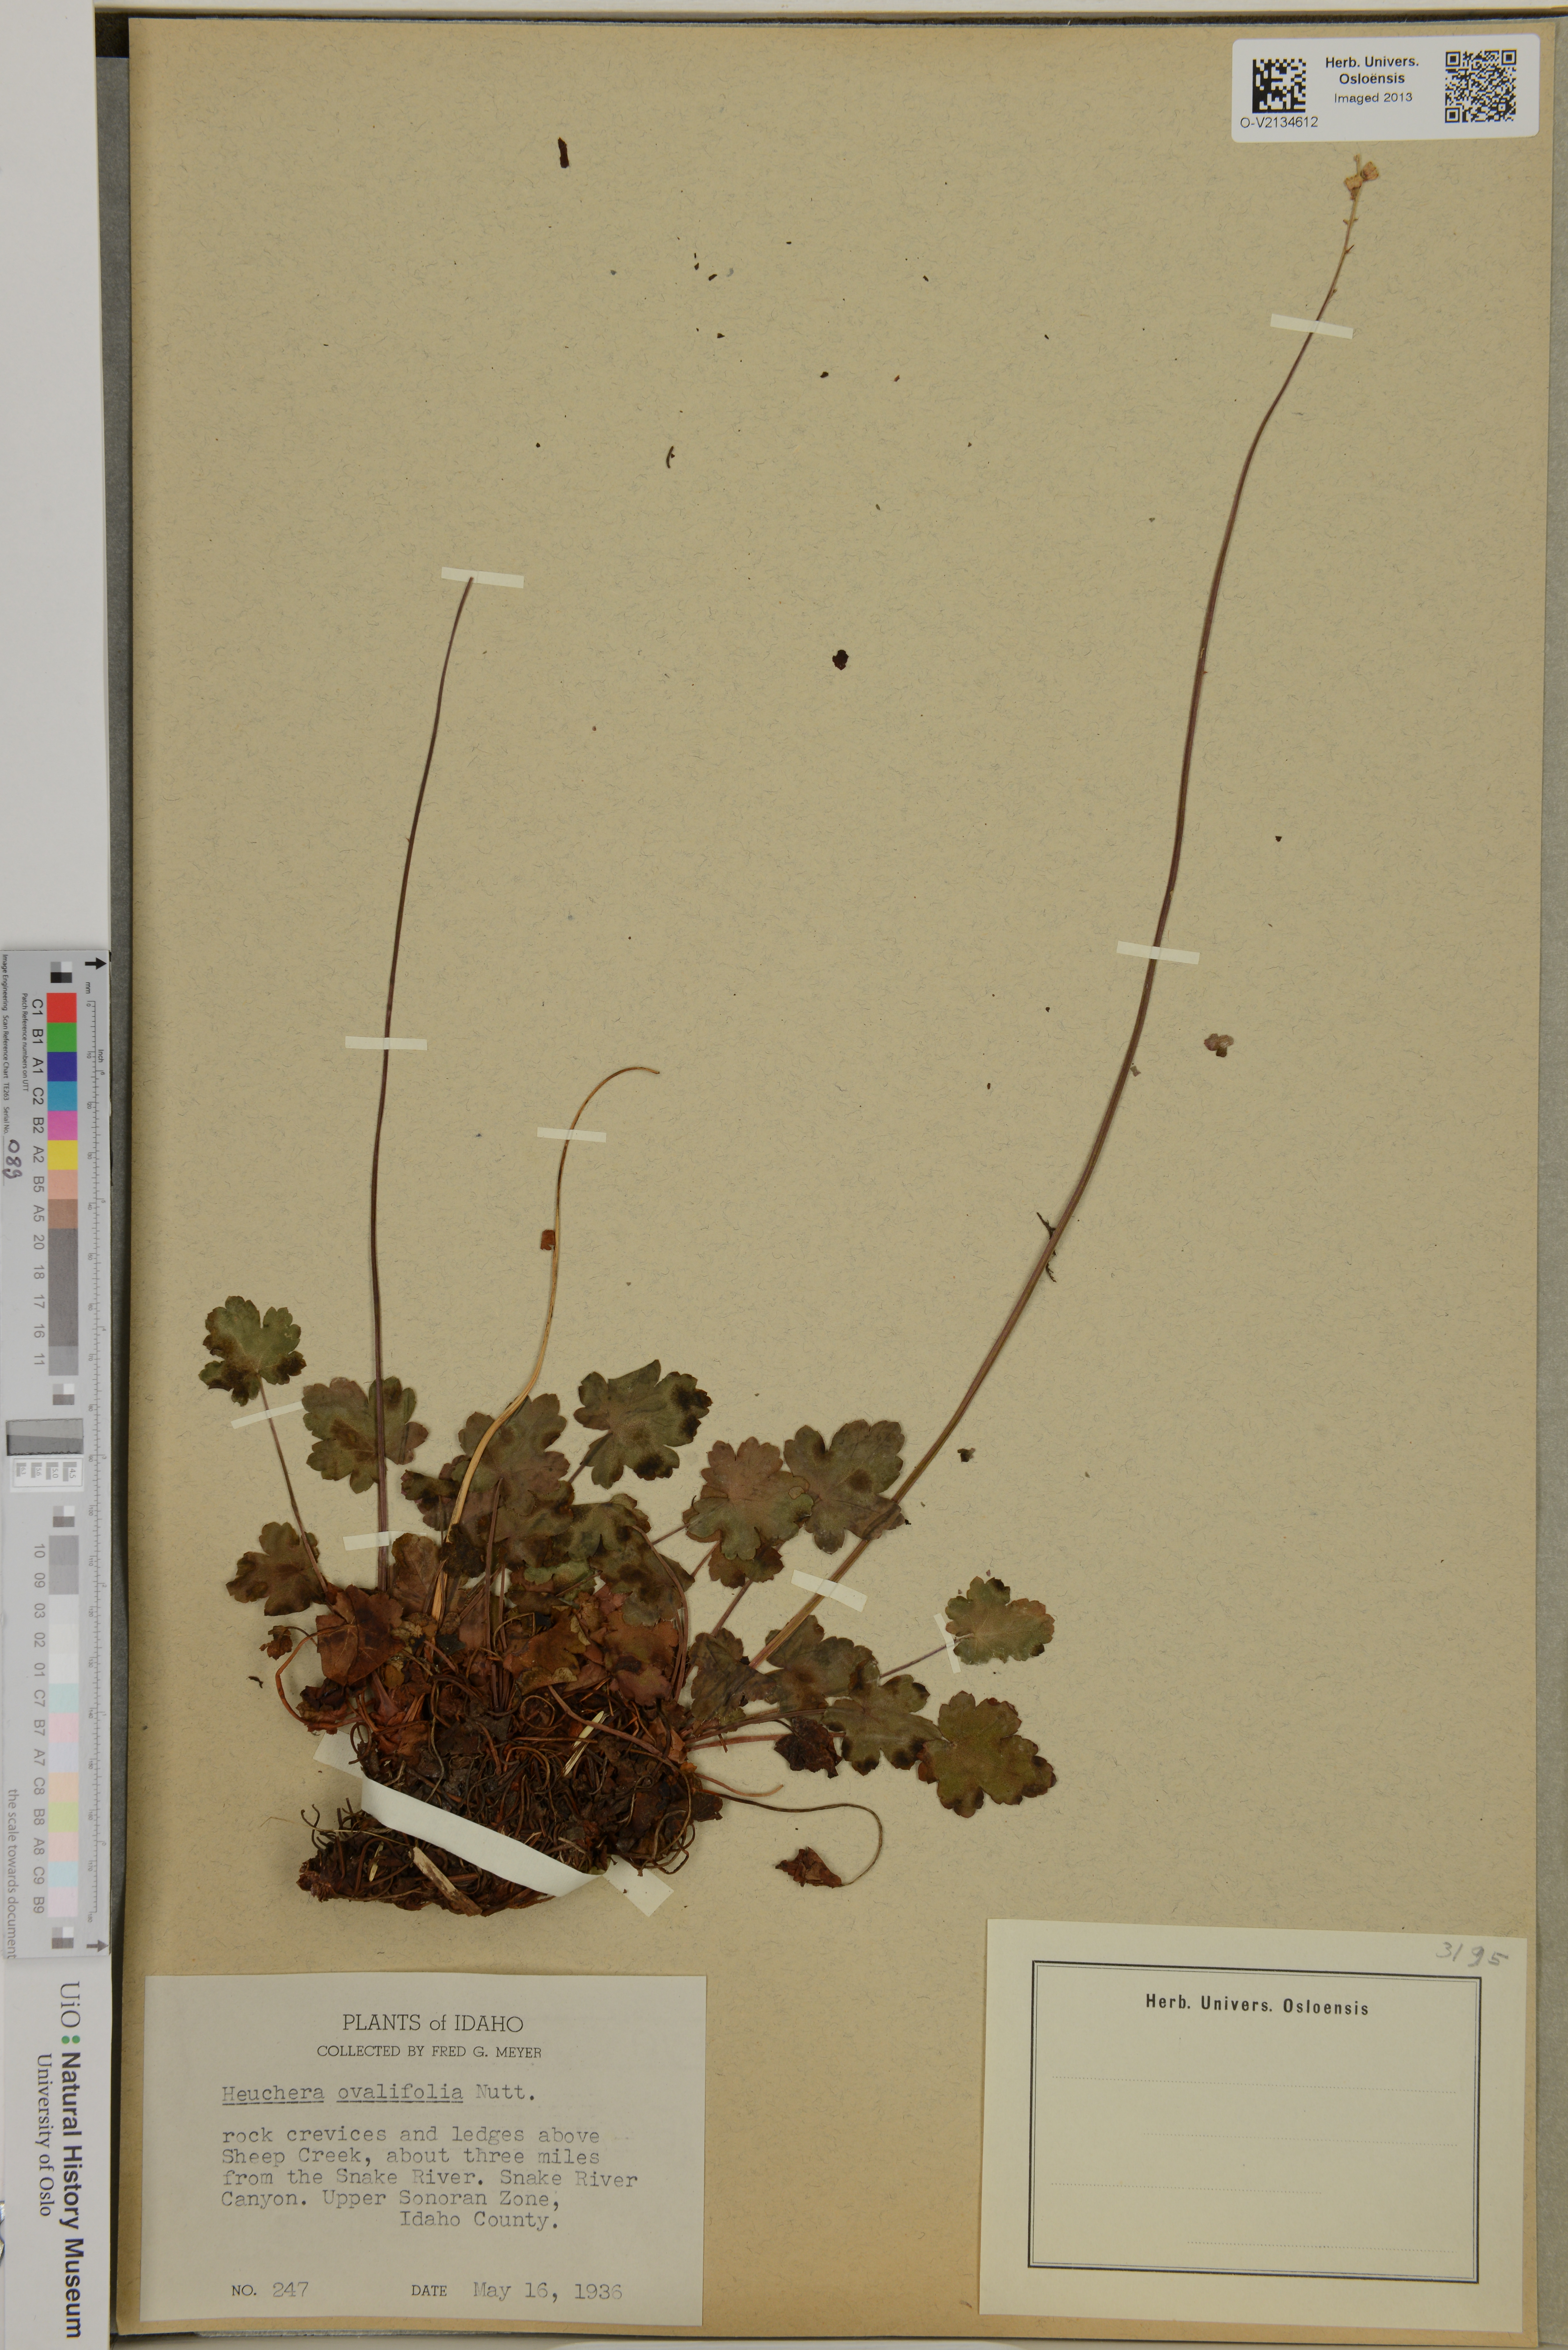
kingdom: Plantae
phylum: Tracheophyta
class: Magnoliopsida
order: Saxifragales
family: Saxifragaceae
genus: Heuchera
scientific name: Heuchera cylindrica
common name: Mat alumroot
